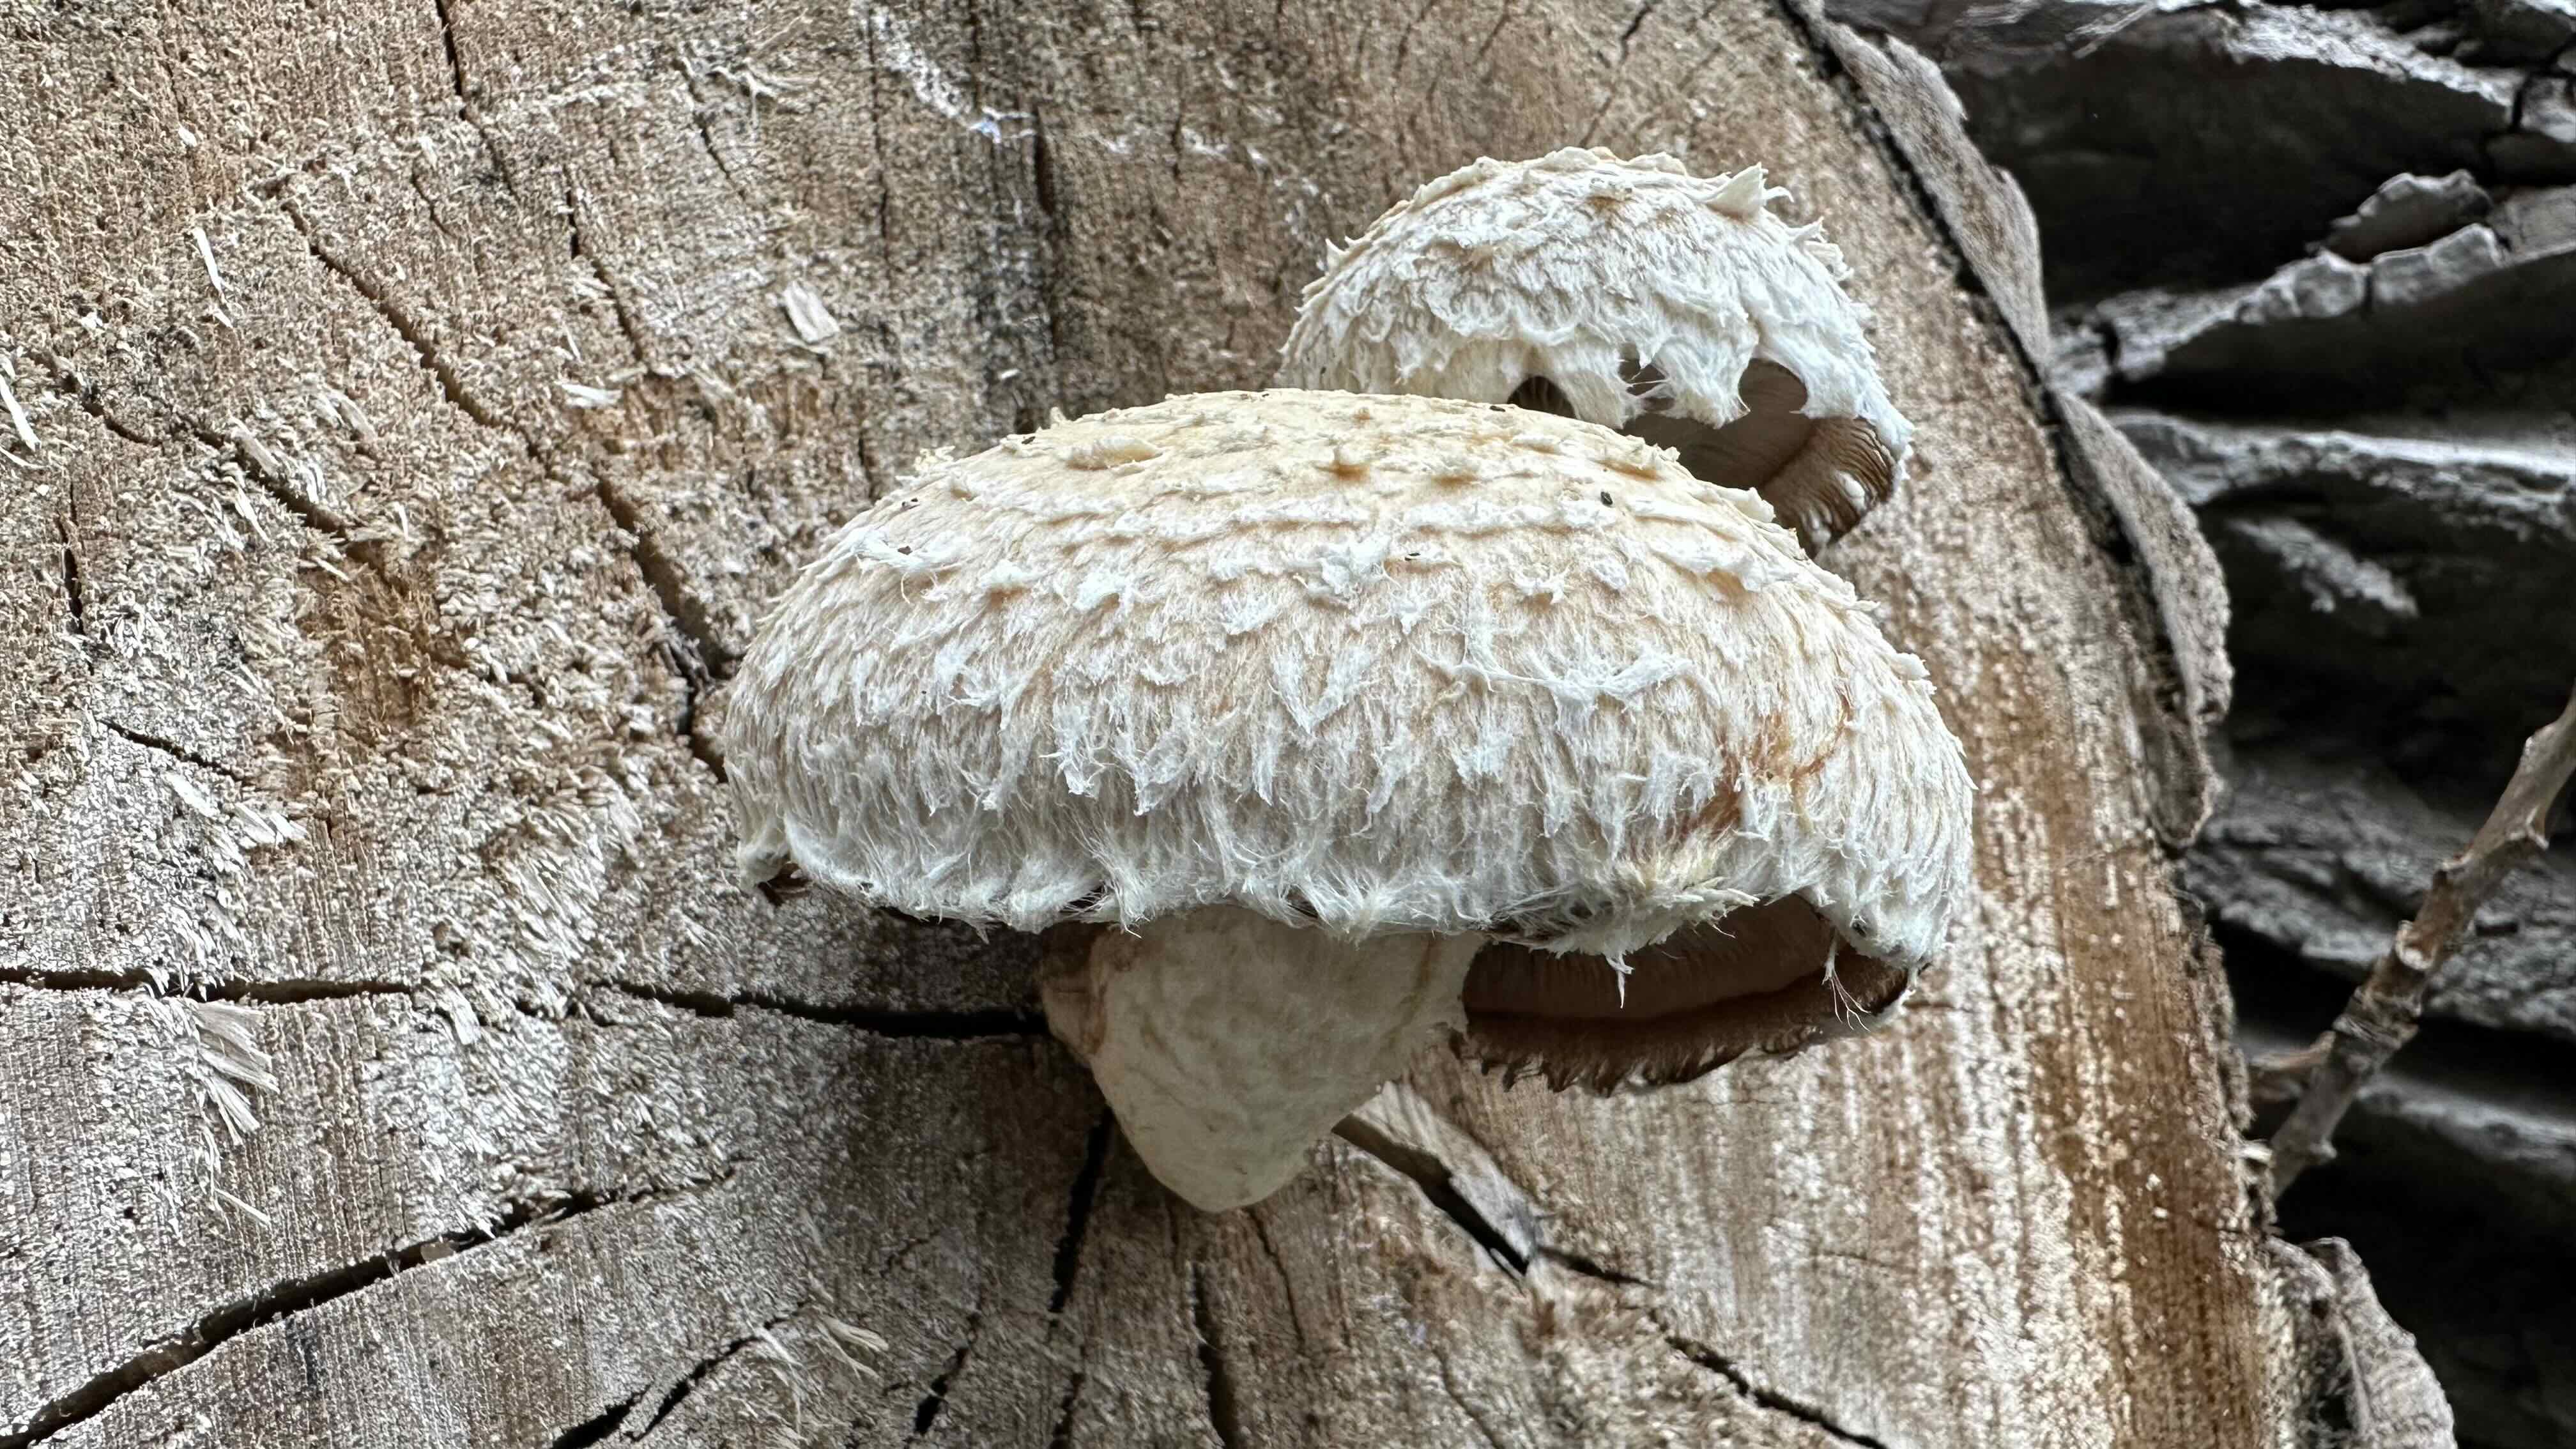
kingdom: Fungi
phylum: Basidiomycota
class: Agaricomycetes
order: Agaricales
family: Strophariaceae
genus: Pholiota
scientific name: Pholiota populnea
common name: poppel-kæmpeskælhat
